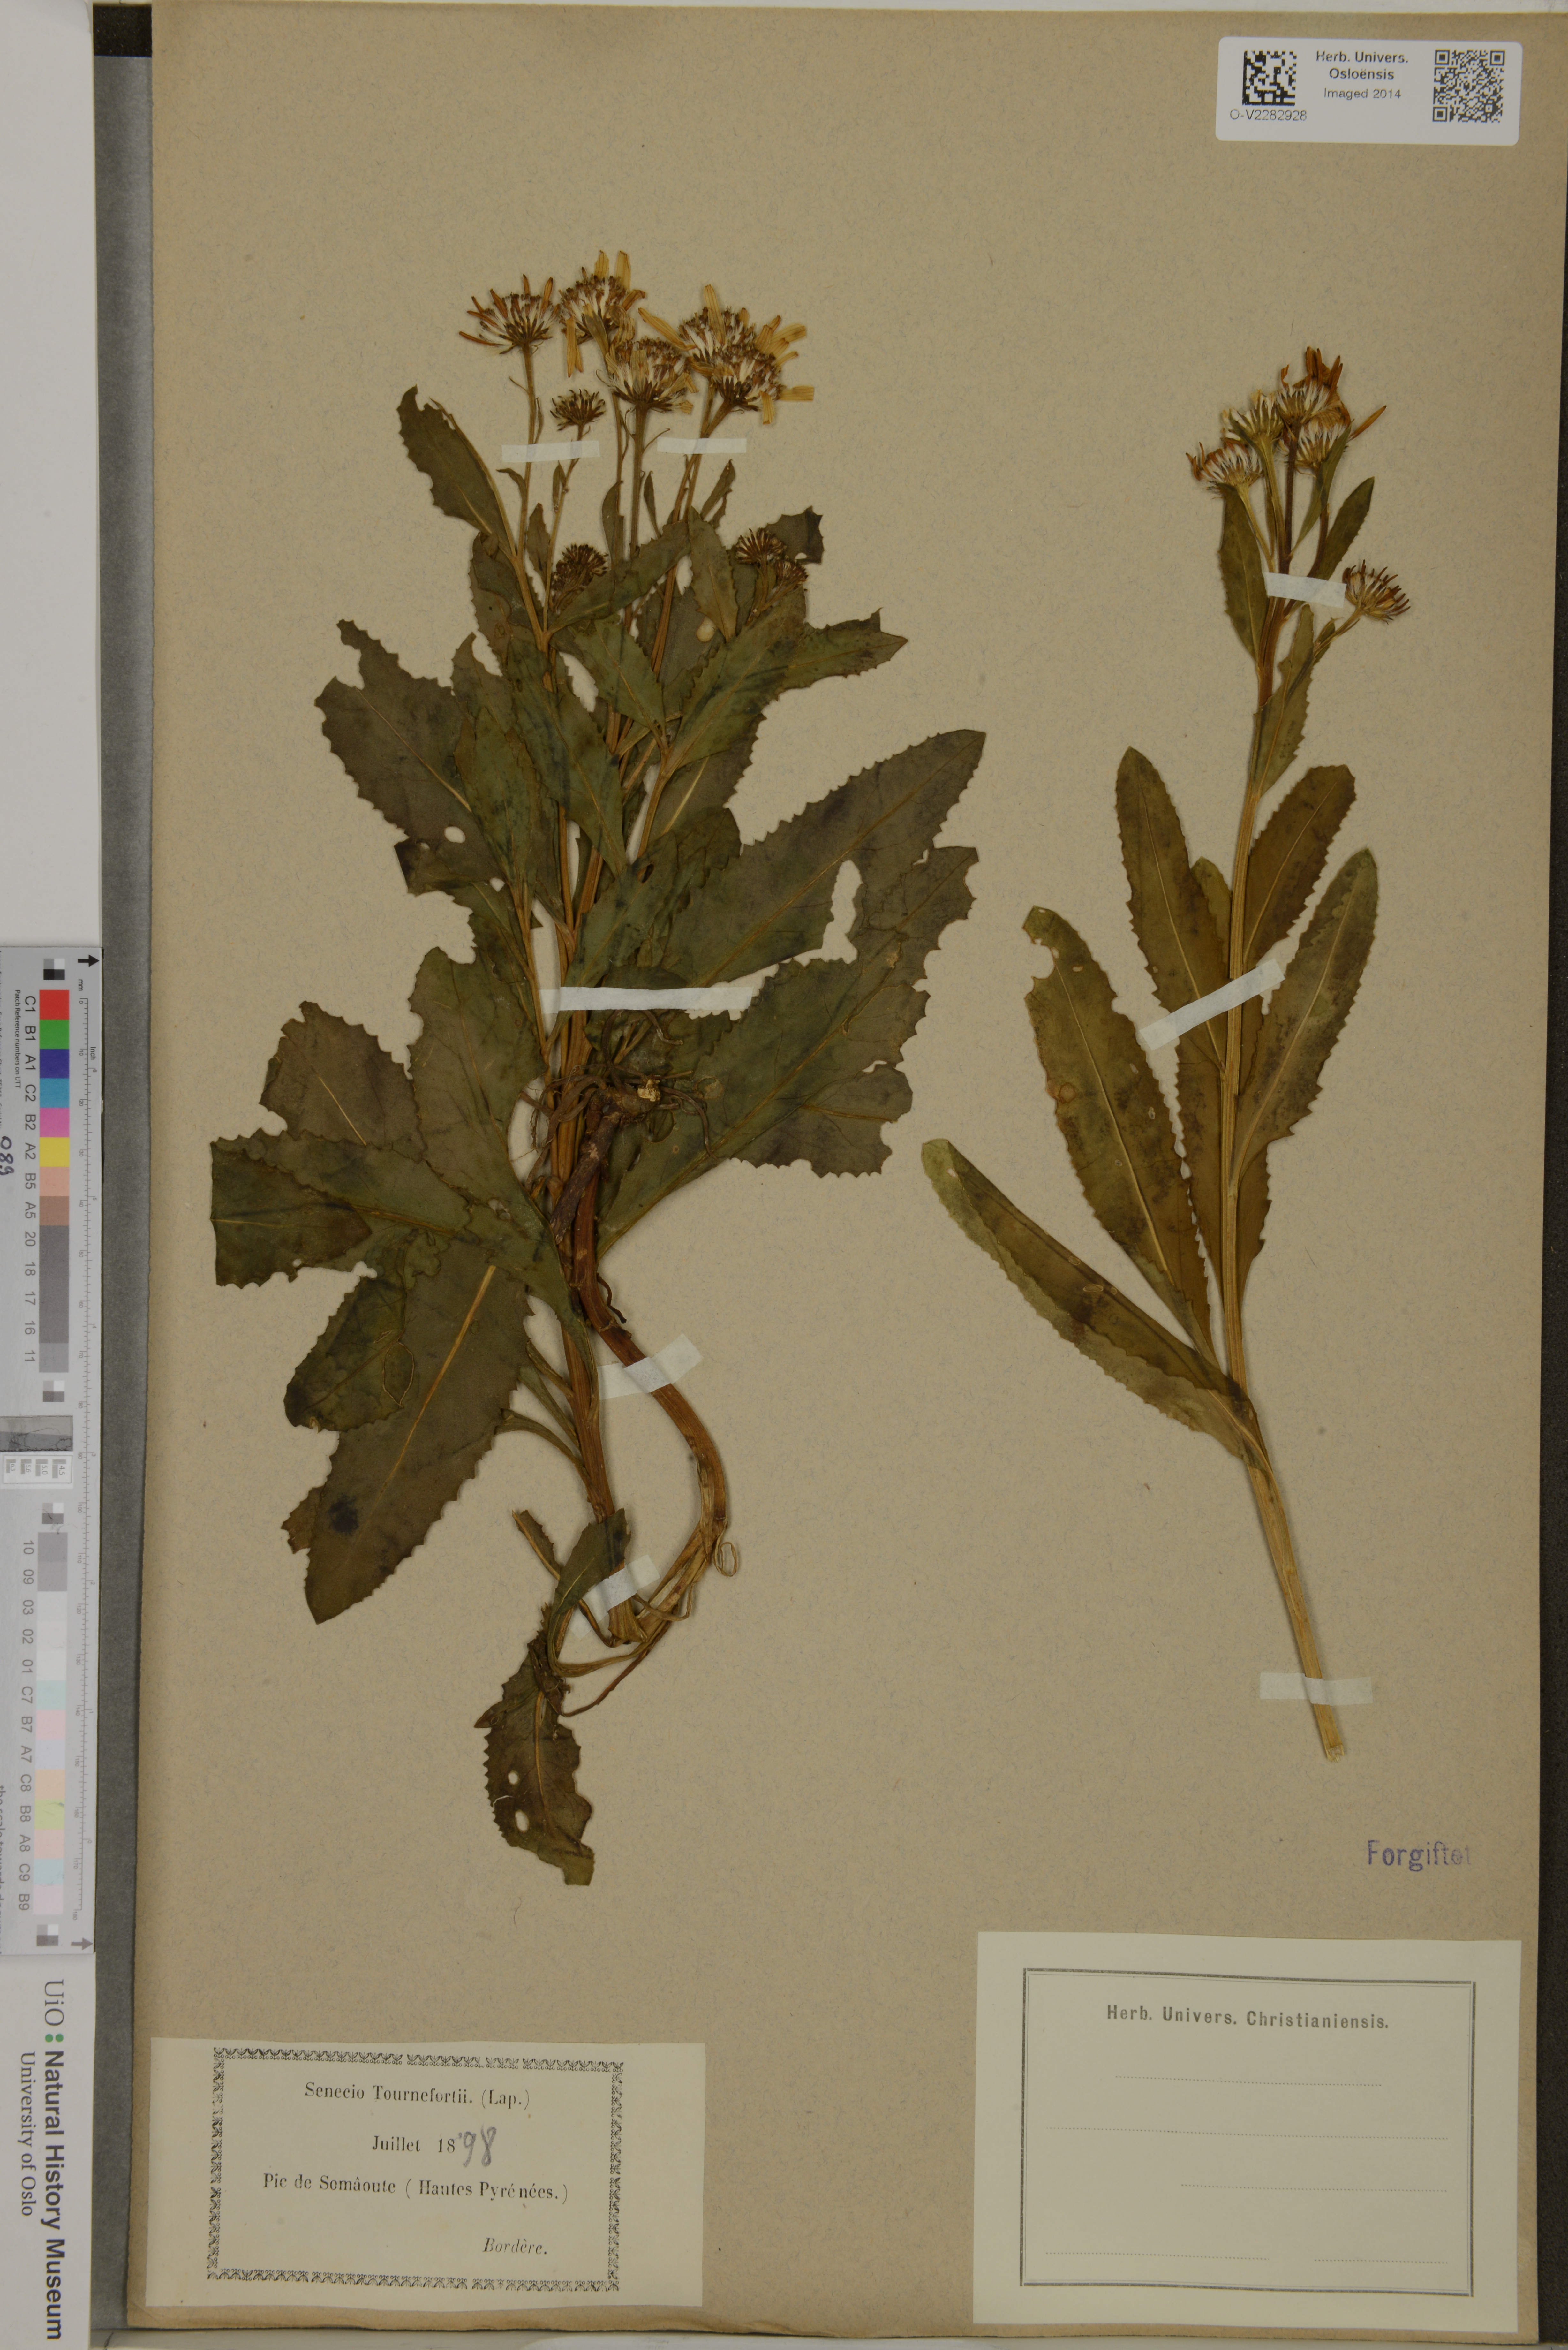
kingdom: Plantae
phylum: Tracheophyta
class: Magnoliopsida
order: Asterales
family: Asteraceae
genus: Senecio
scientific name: Senecio pyrenaicus
